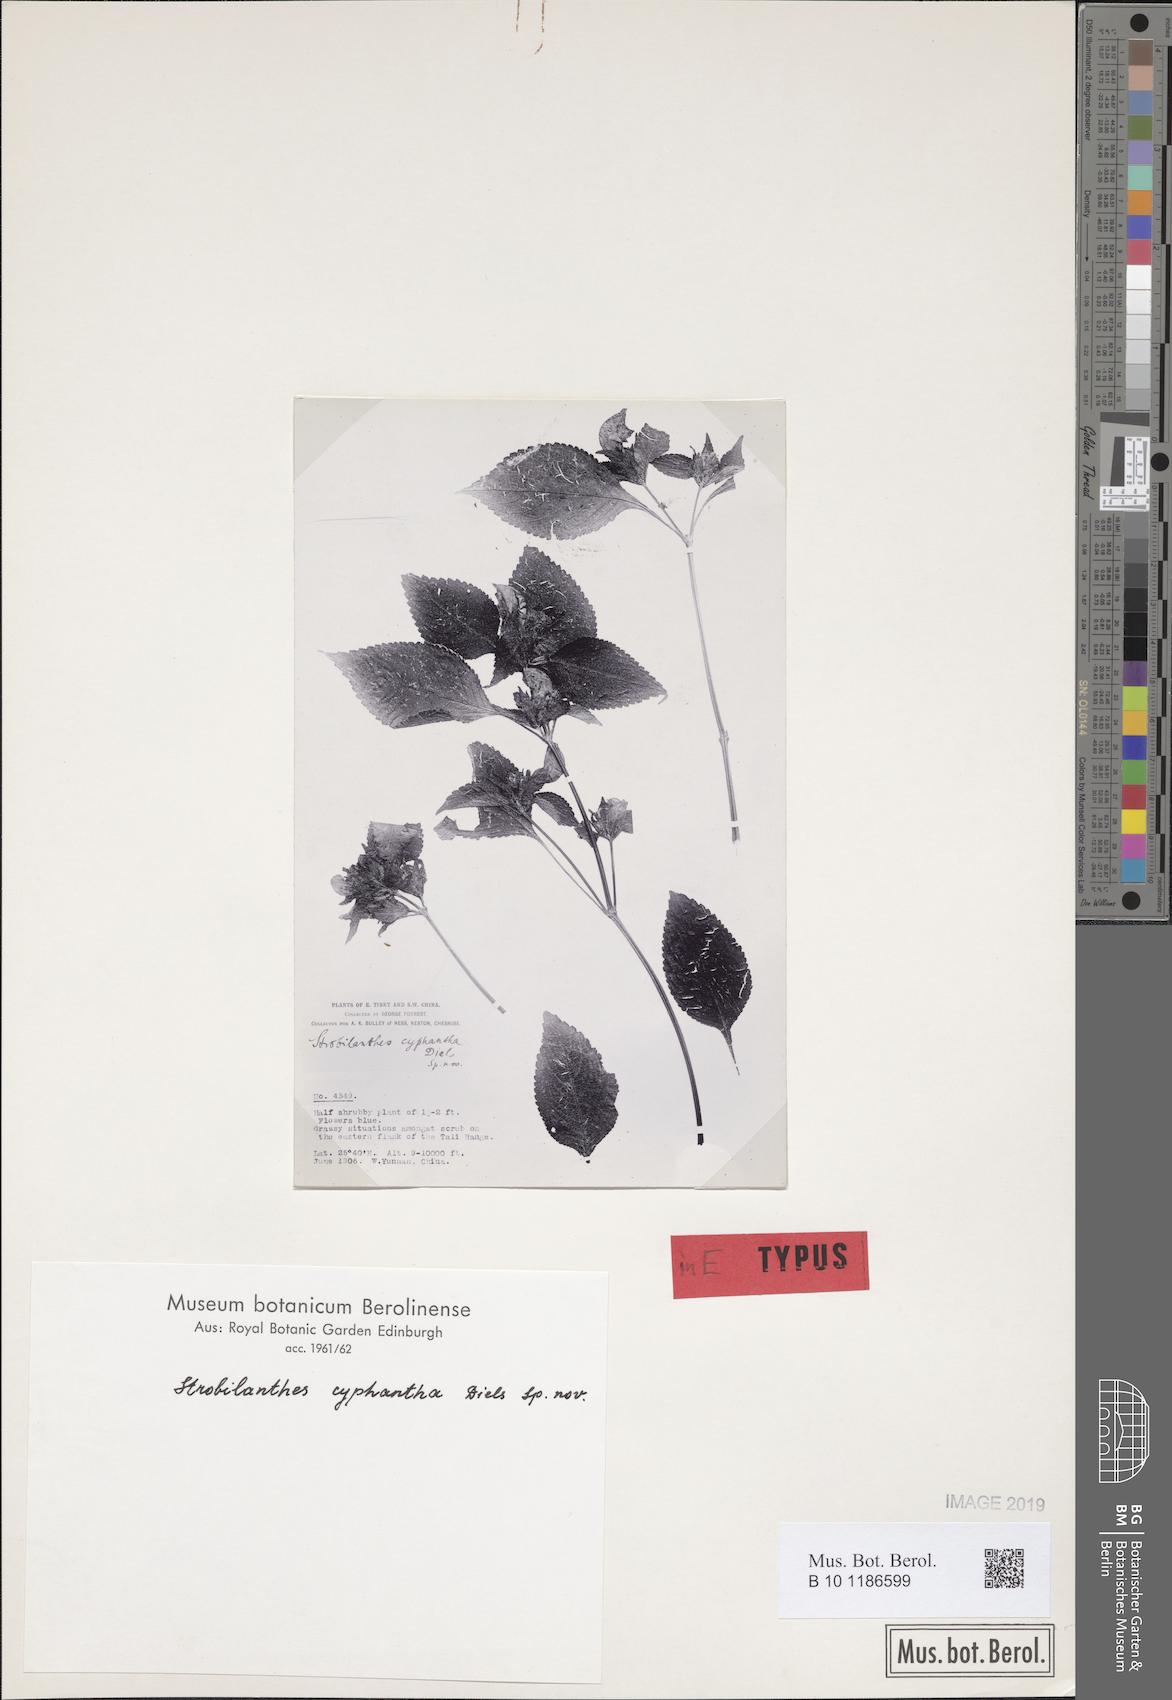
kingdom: Plantae
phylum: Tracheophyta
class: Magnoliopsida
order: Lamiales
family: Acanthaceae
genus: Strobilanthes
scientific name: Strobilanthes cyphantha
